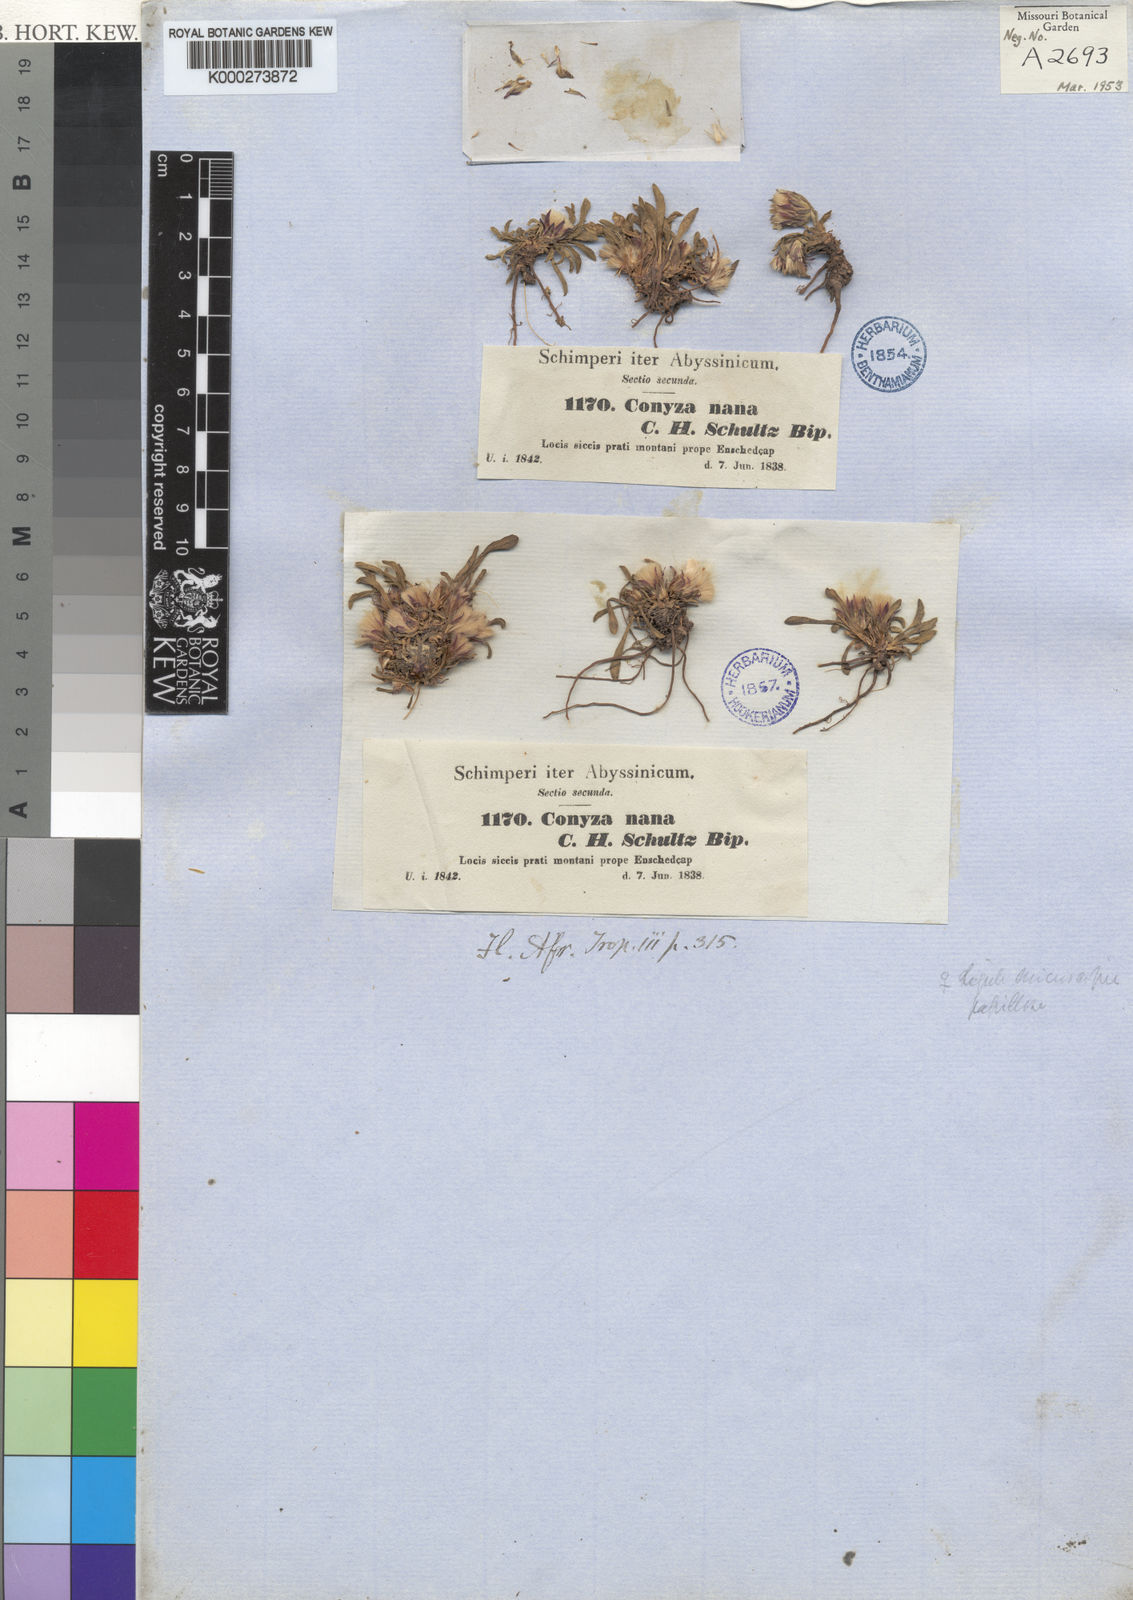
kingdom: Plantae
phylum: Tracheophyta
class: Magnoliopsida
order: Asterales
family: Asteraceae
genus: Conyza
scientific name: Conyza nana
